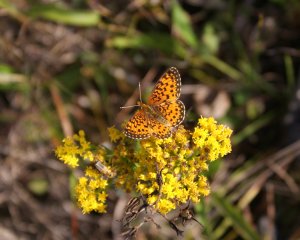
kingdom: Animalia
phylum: Arthropoda
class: Insecta
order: Lepidoptera
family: Nymphalidae
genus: Boloria
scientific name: Boloria selene
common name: Silver-bordered Fritillary
